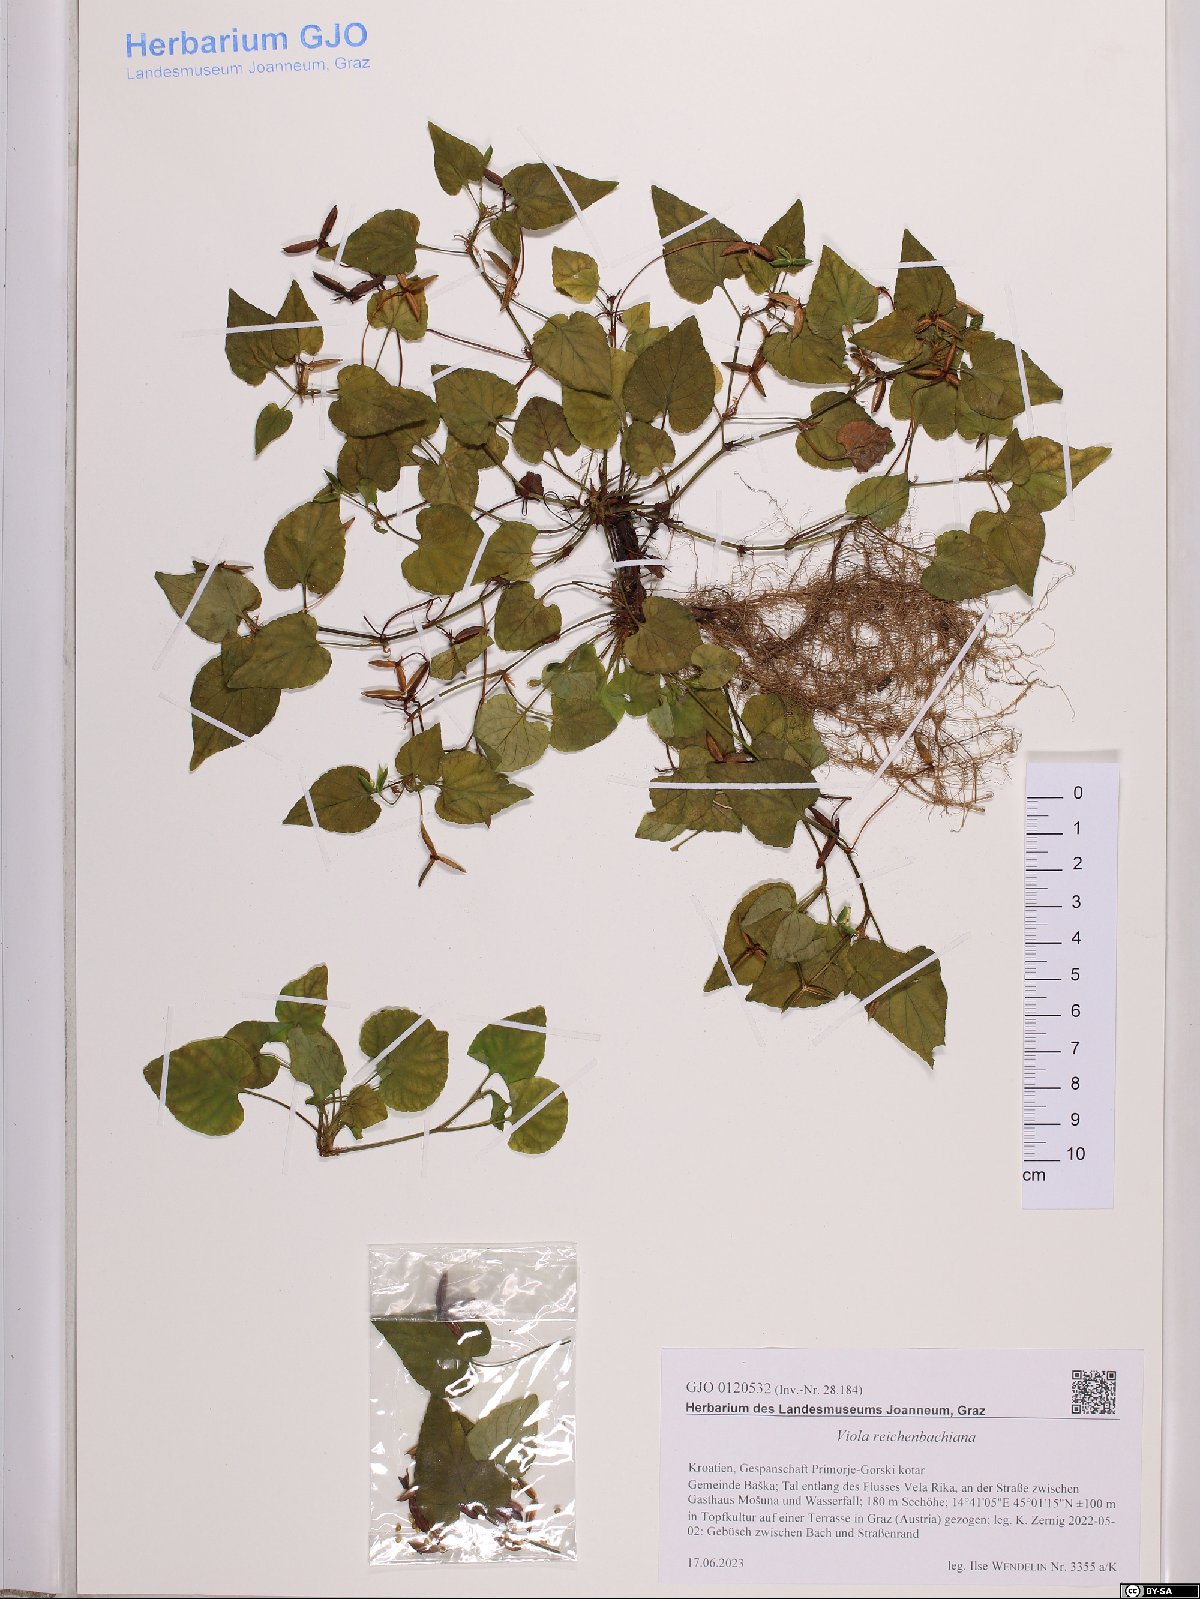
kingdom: Plantae
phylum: Tracheophyta
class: Magnoliopsida
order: Malpighiales
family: Violaceae
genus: Viola
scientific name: Viola reichenbachiana
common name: Early dog-violet
